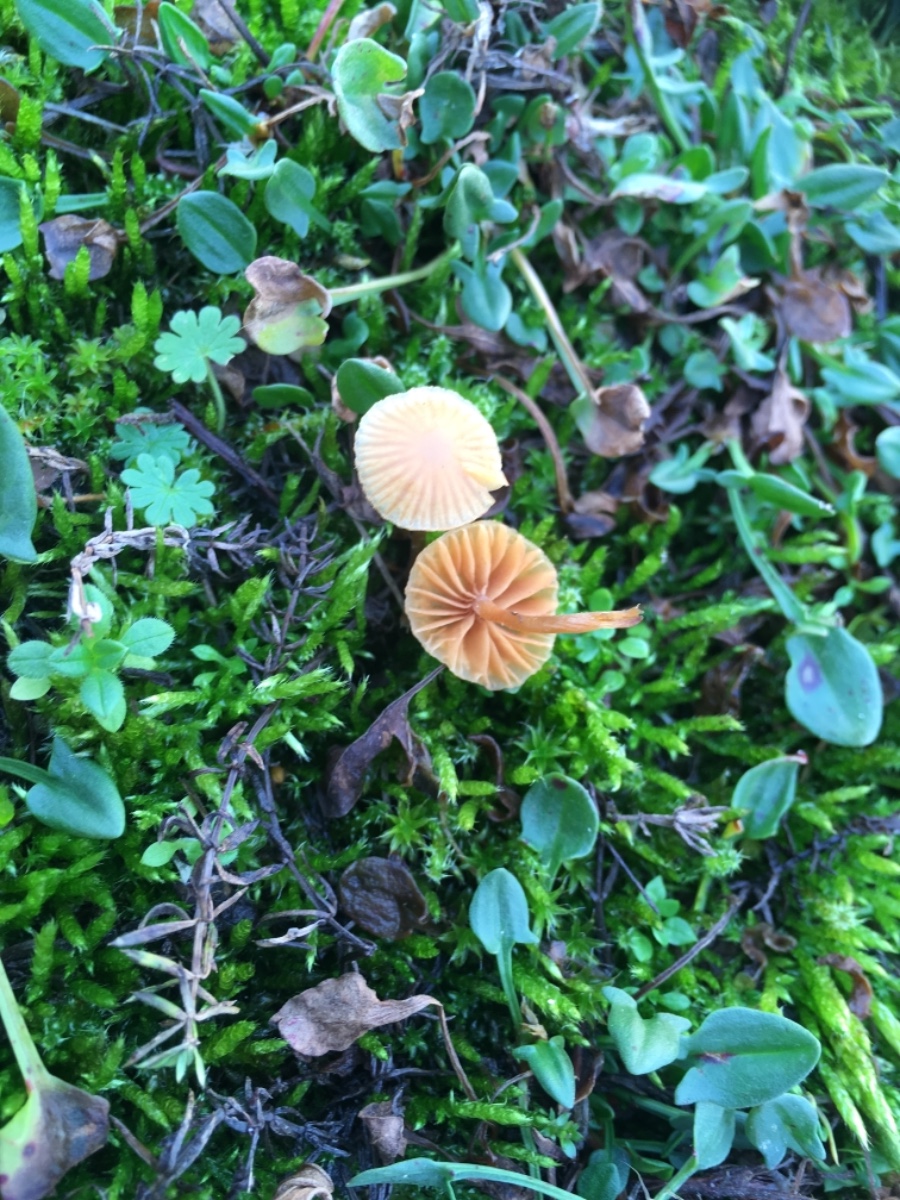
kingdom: Fungi
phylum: Basidiomycota
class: Agaricomycetes
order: Agaricales
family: Hymenogastraceae
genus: Galerina
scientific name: Galerina
